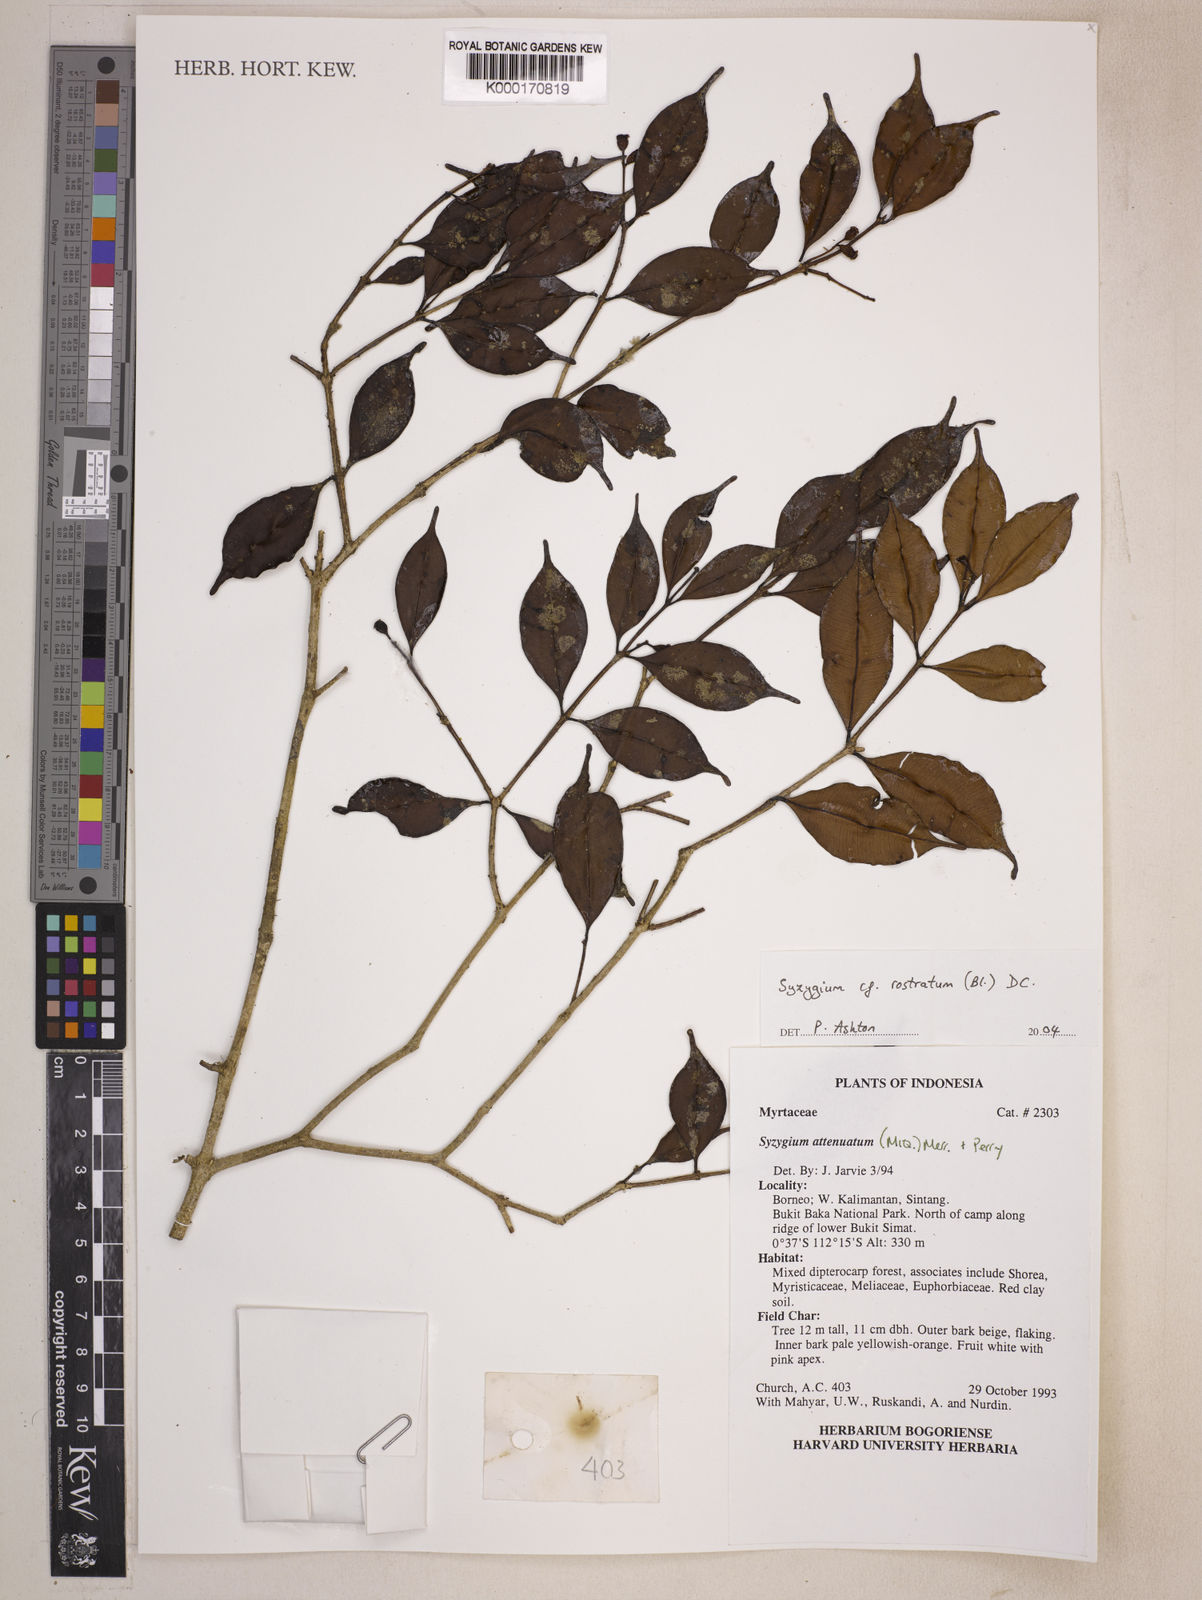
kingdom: Plantae
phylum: Tracheophyta
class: Magnoliopsida
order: Myrtales
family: Myrtaceae
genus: Syzygium
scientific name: Syzygium rostratum
